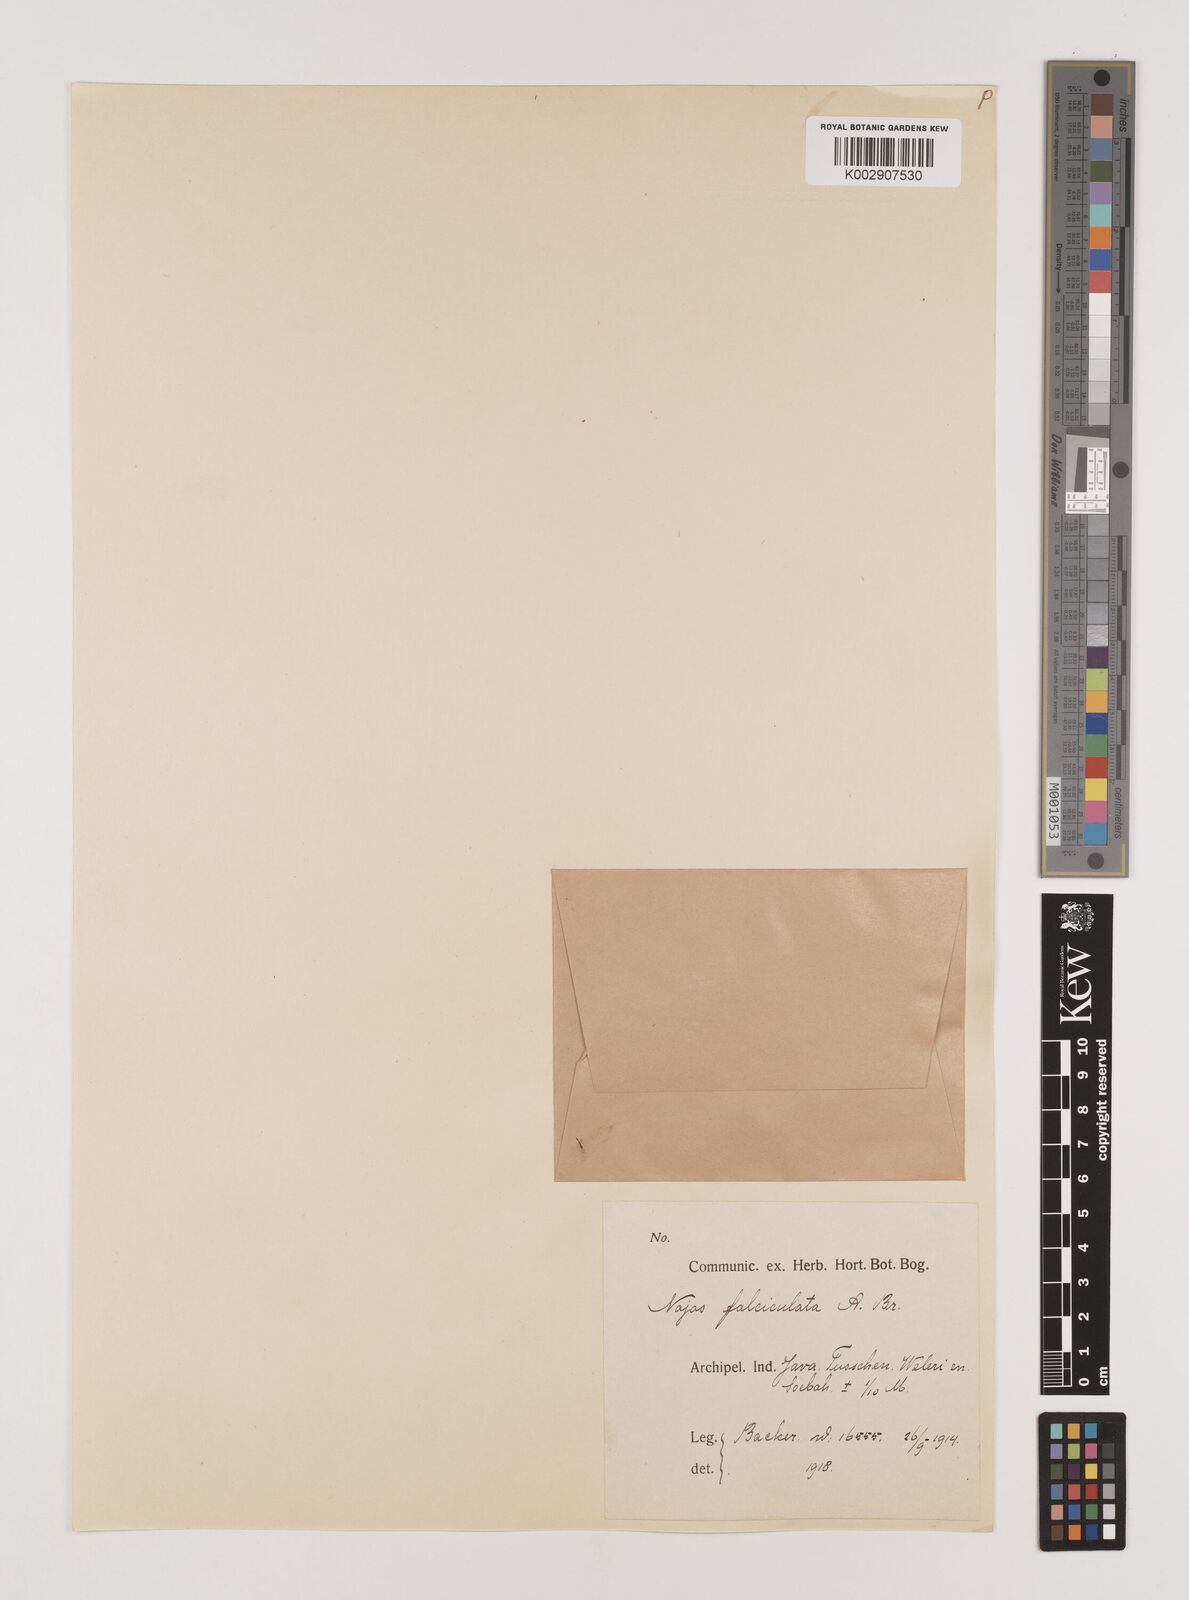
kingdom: Plantae
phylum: Tracheophyta
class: Liliopsida
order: Alismatales
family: Hydrocharitaceae
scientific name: Hydrocharitaceae
